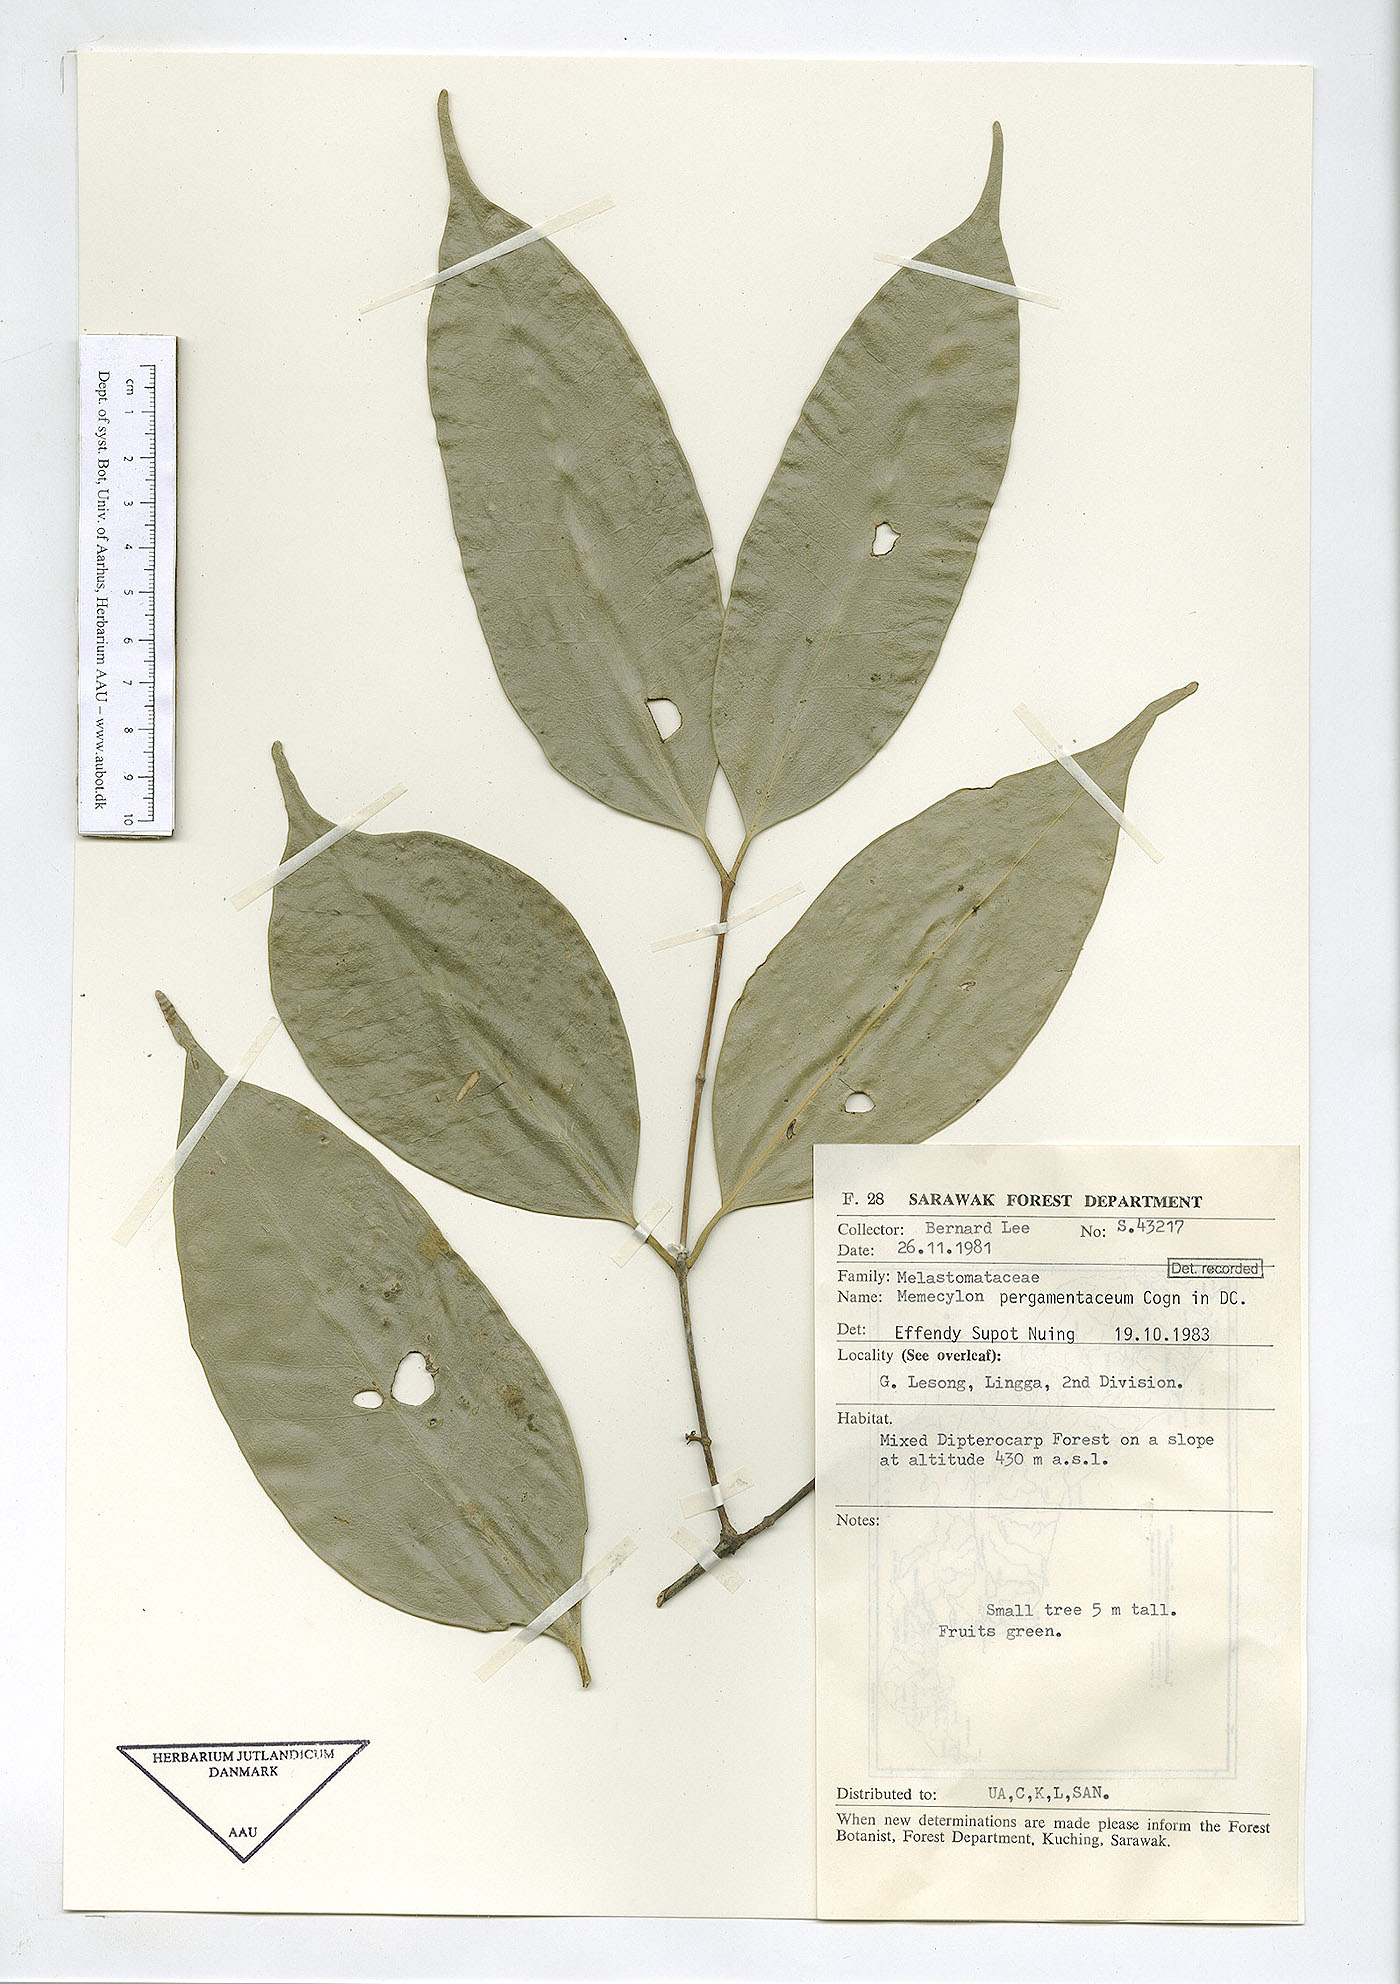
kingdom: Plantae
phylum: Tracheophyta
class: Magnoliopsida
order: Myrtales
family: Melastomataceae
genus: Memecylon
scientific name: Memecylon pergamentaceum
